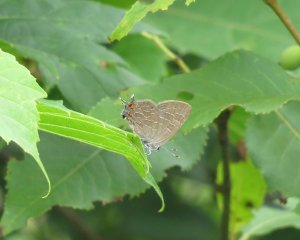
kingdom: Animalia
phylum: Arthropoda
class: Insecta
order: Lepidoptera
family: Lycaenidae
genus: Satyrium
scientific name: Satyrium liparops
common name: Striped Hairstreak
